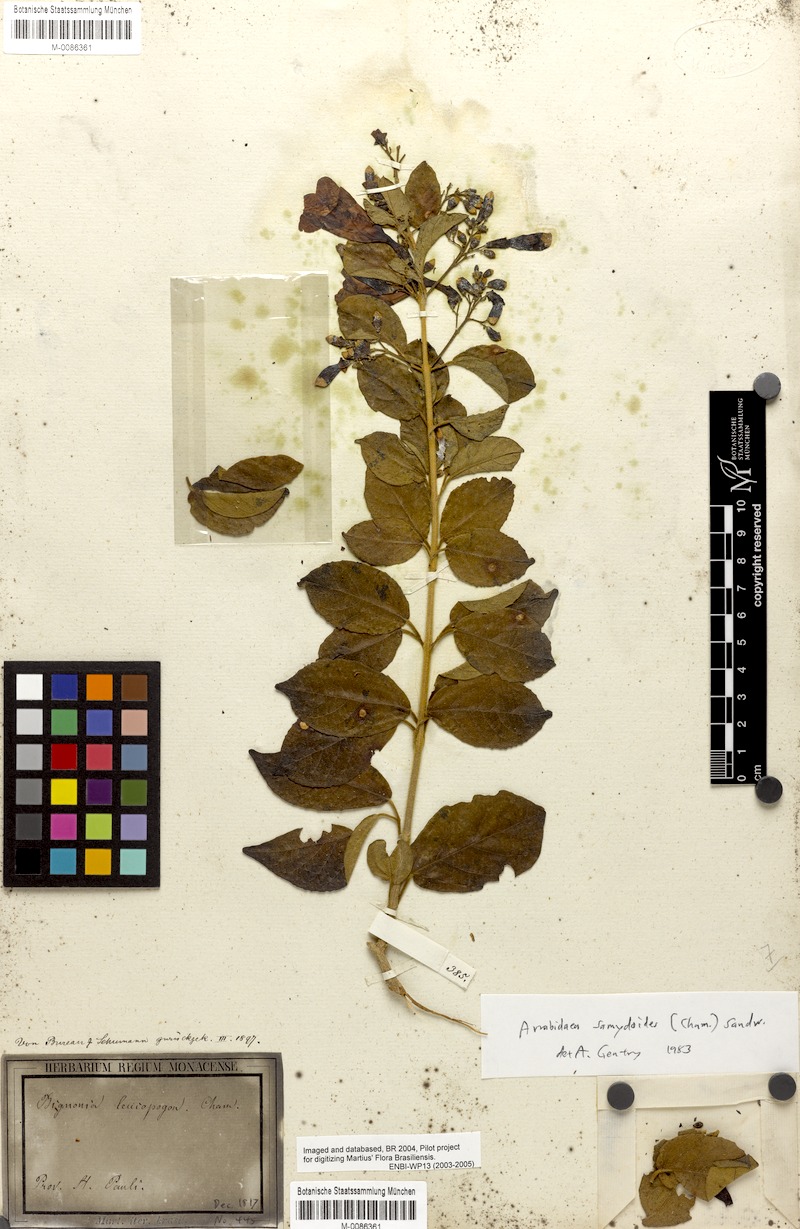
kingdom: Plantae
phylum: Tracheophyta
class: Magnoliopsida
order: Lamiales
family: Bignoniaceae
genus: Fridericia
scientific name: Fridericia samydoides
